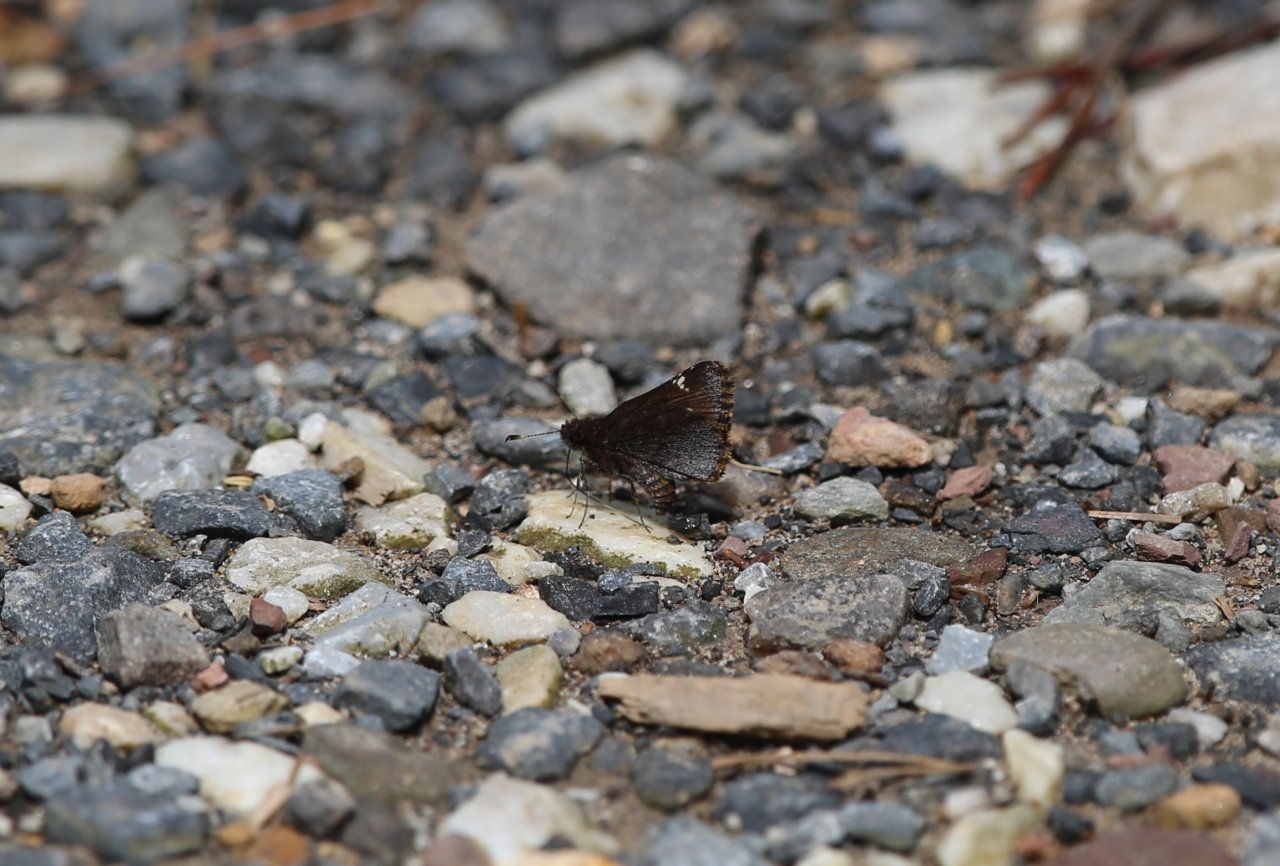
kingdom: Animalia
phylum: Arthropoda
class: Insecta
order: Lepidoptera
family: Hesperiidae
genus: Mastor
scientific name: Mastor vialis
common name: Common Roadside-Skipper
